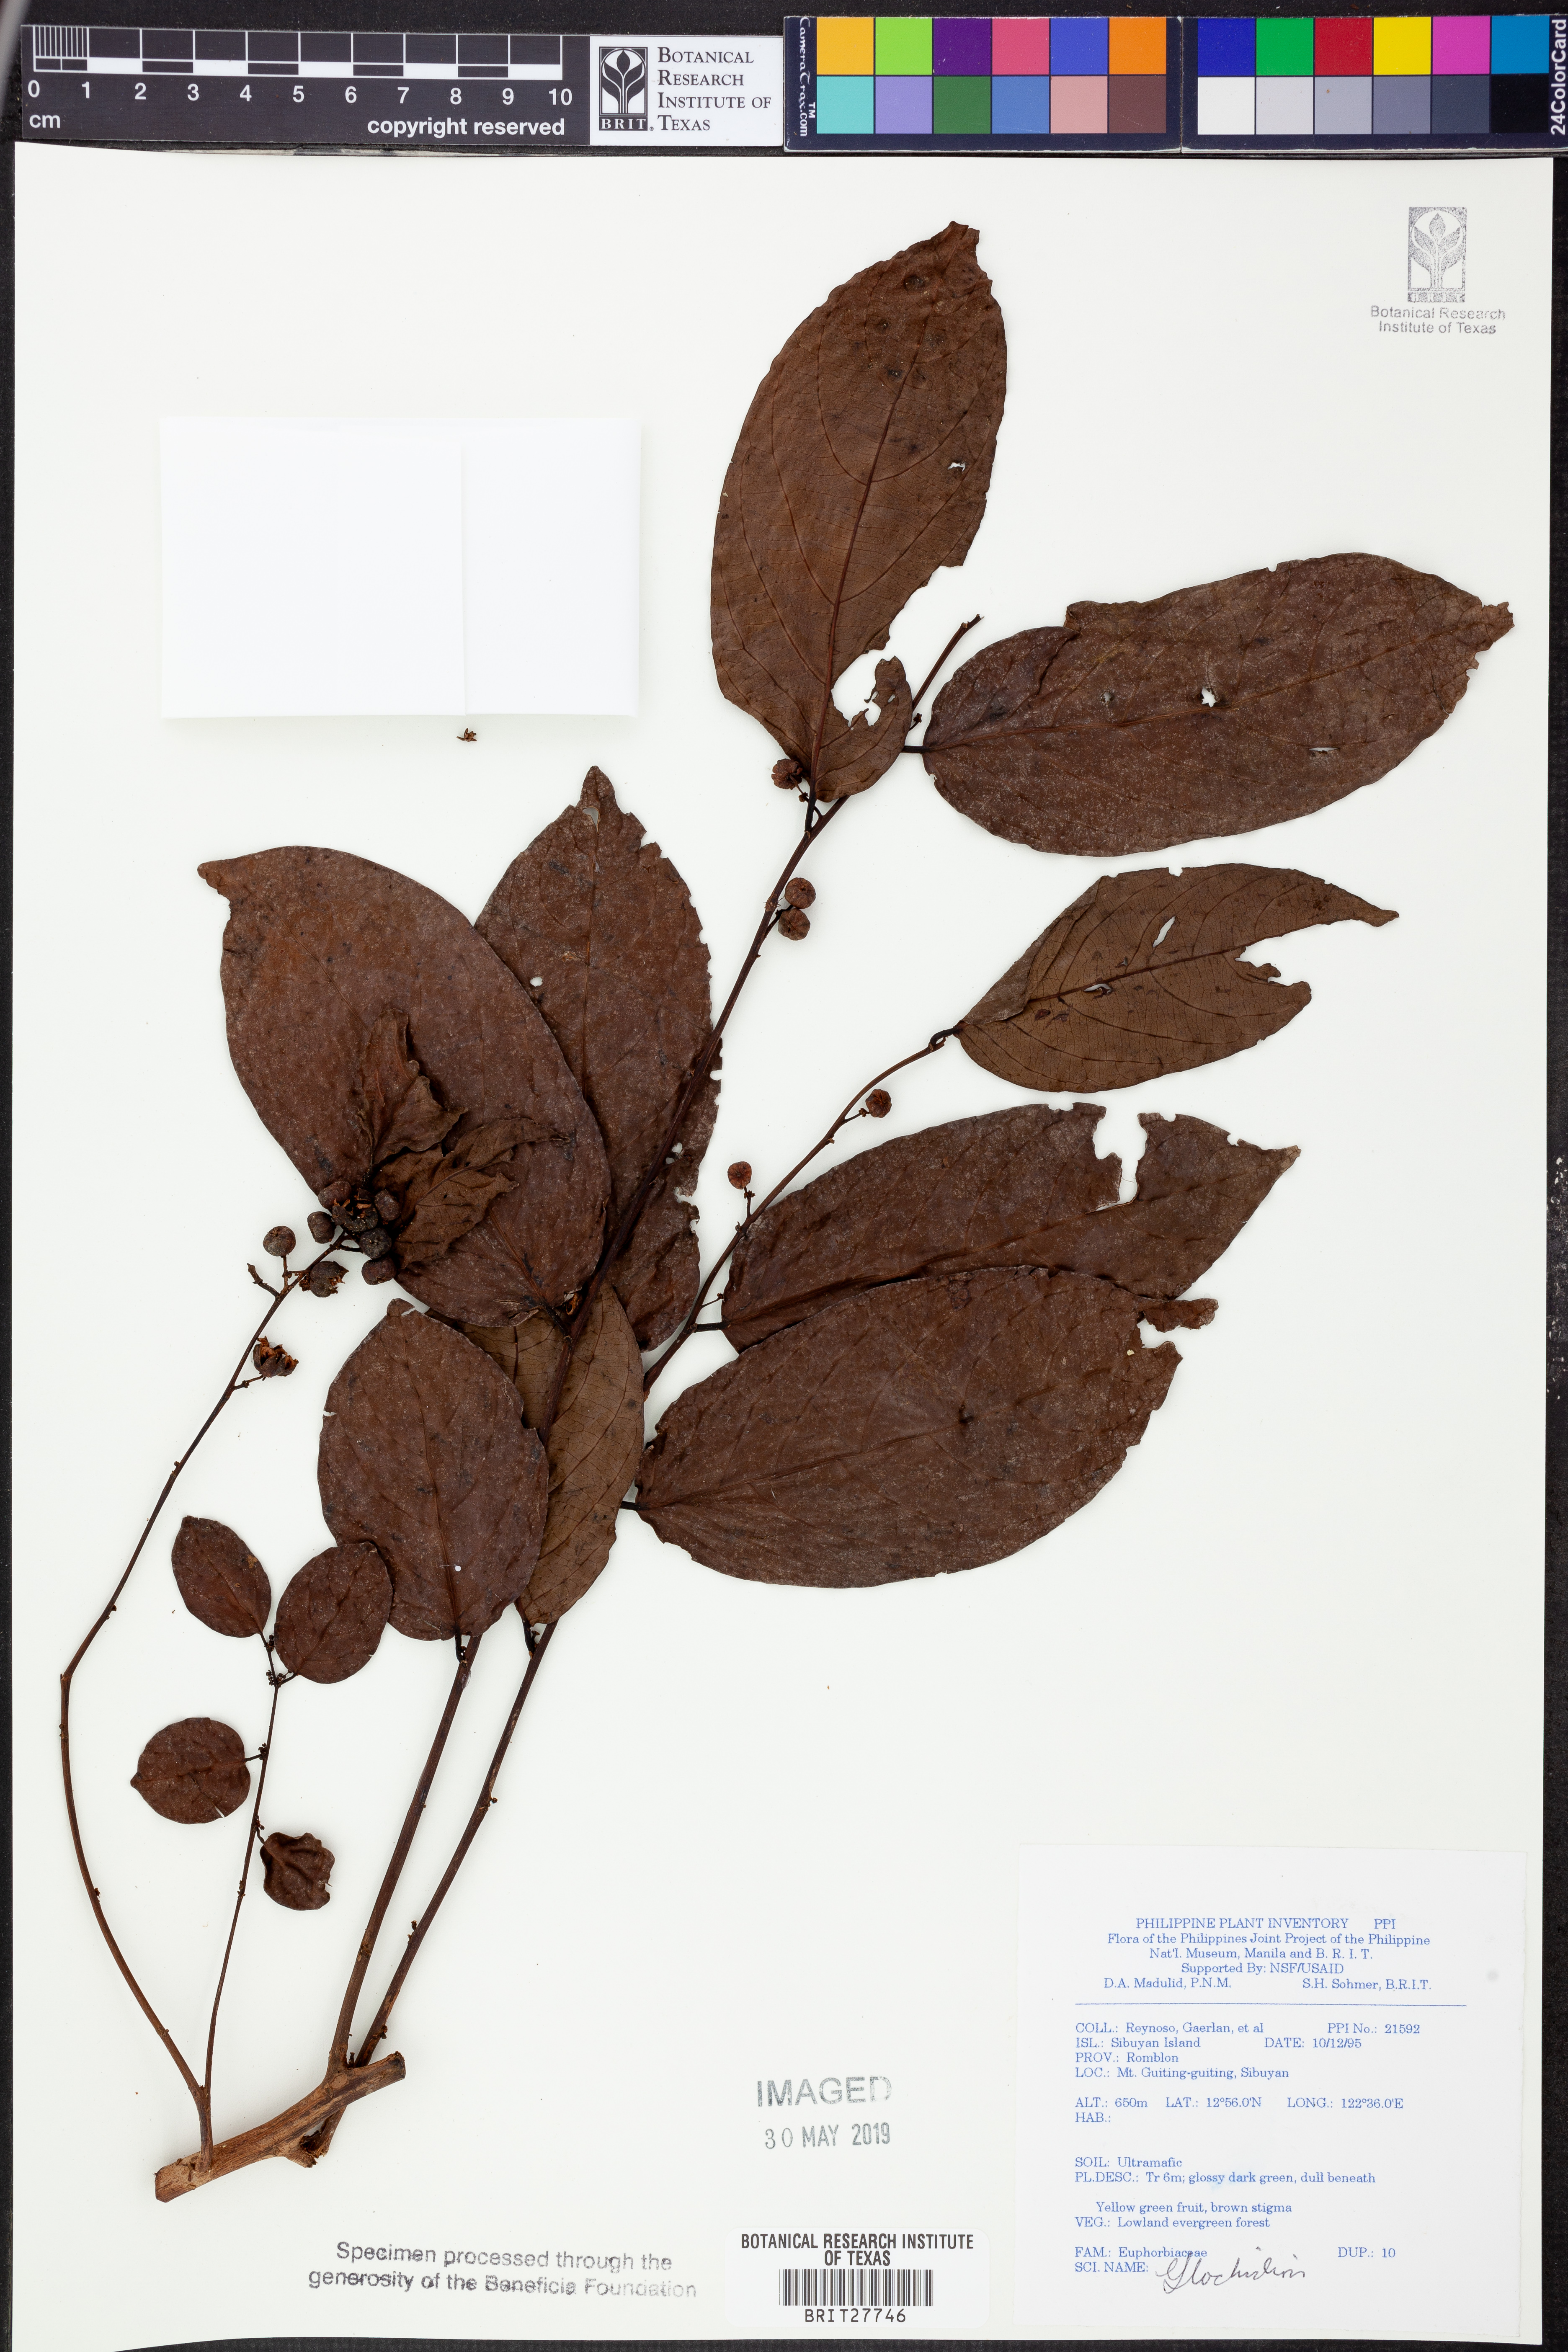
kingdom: Plantae
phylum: Tracheophyta
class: Magnoliopsida
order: Malpighiales
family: Phyllanthaceae
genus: Glochidion
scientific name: Glochidion
